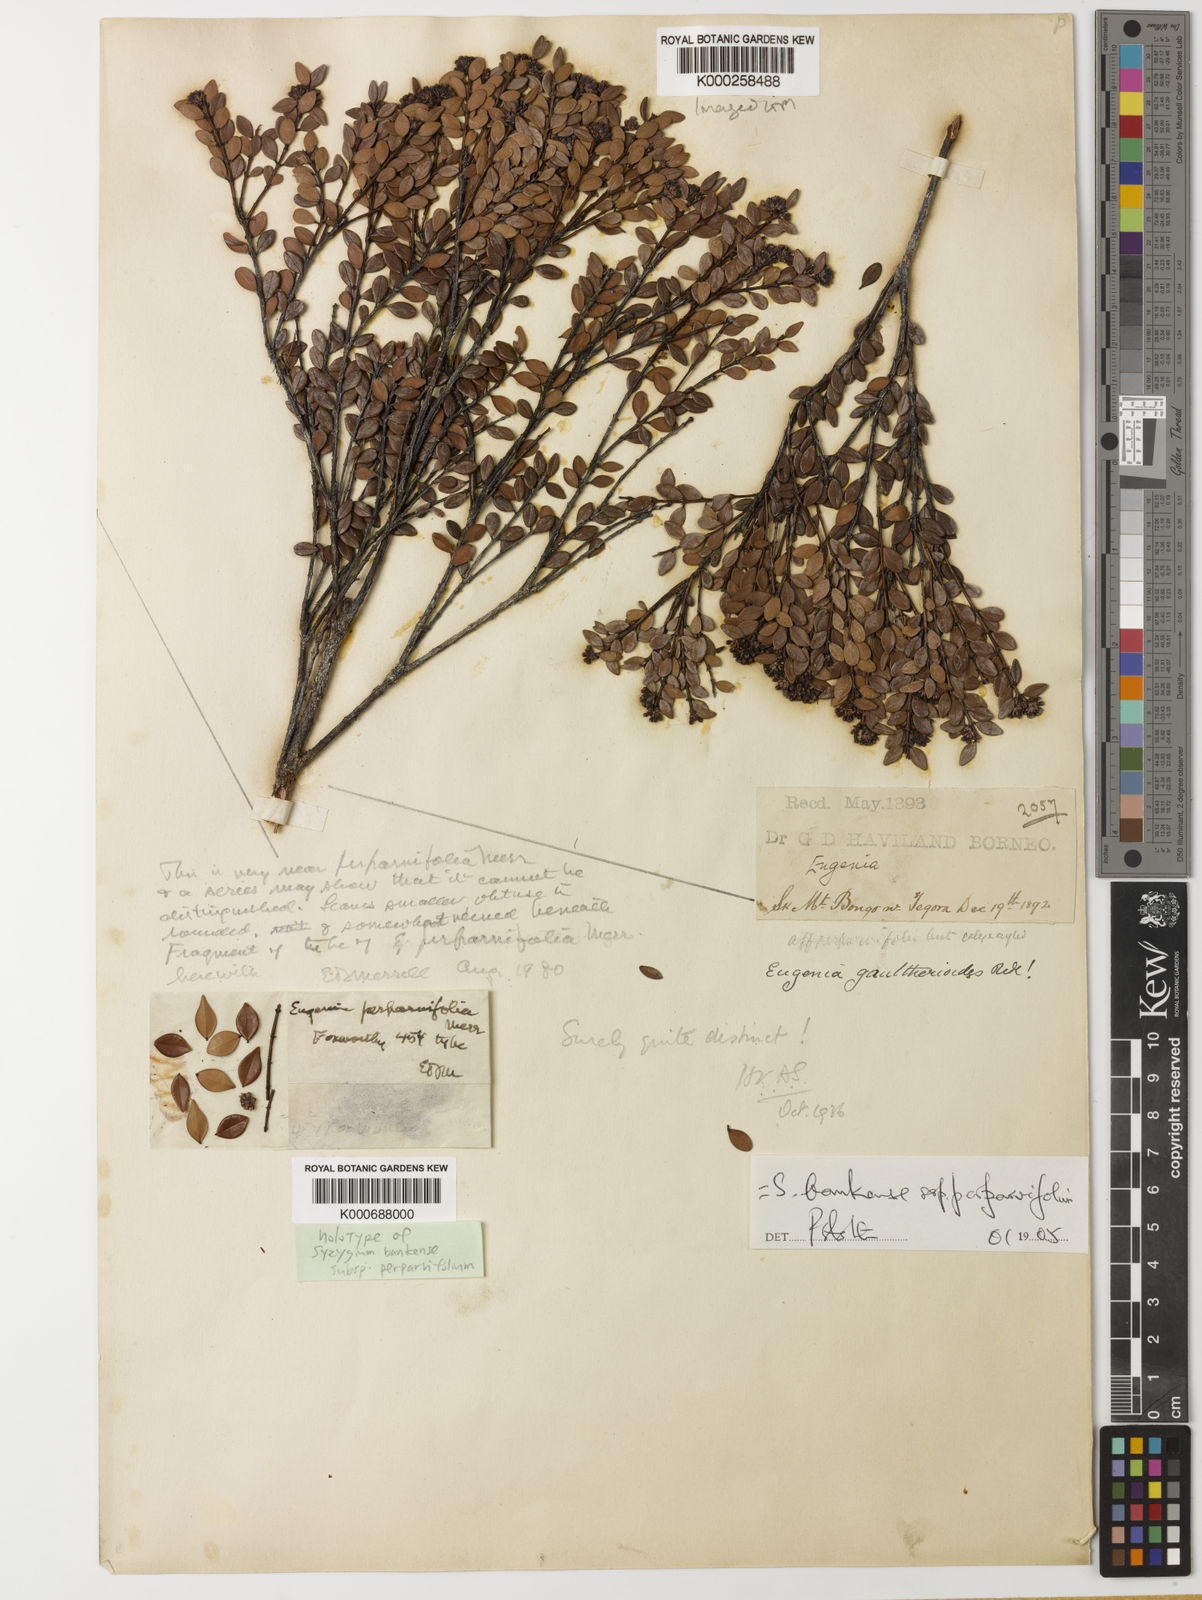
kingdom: Plantae
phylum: Tracheophyta
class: Magnoliopsida
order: Myrtales
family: Myrtaceae
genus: Syzygium
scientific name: Syzygium bankense
